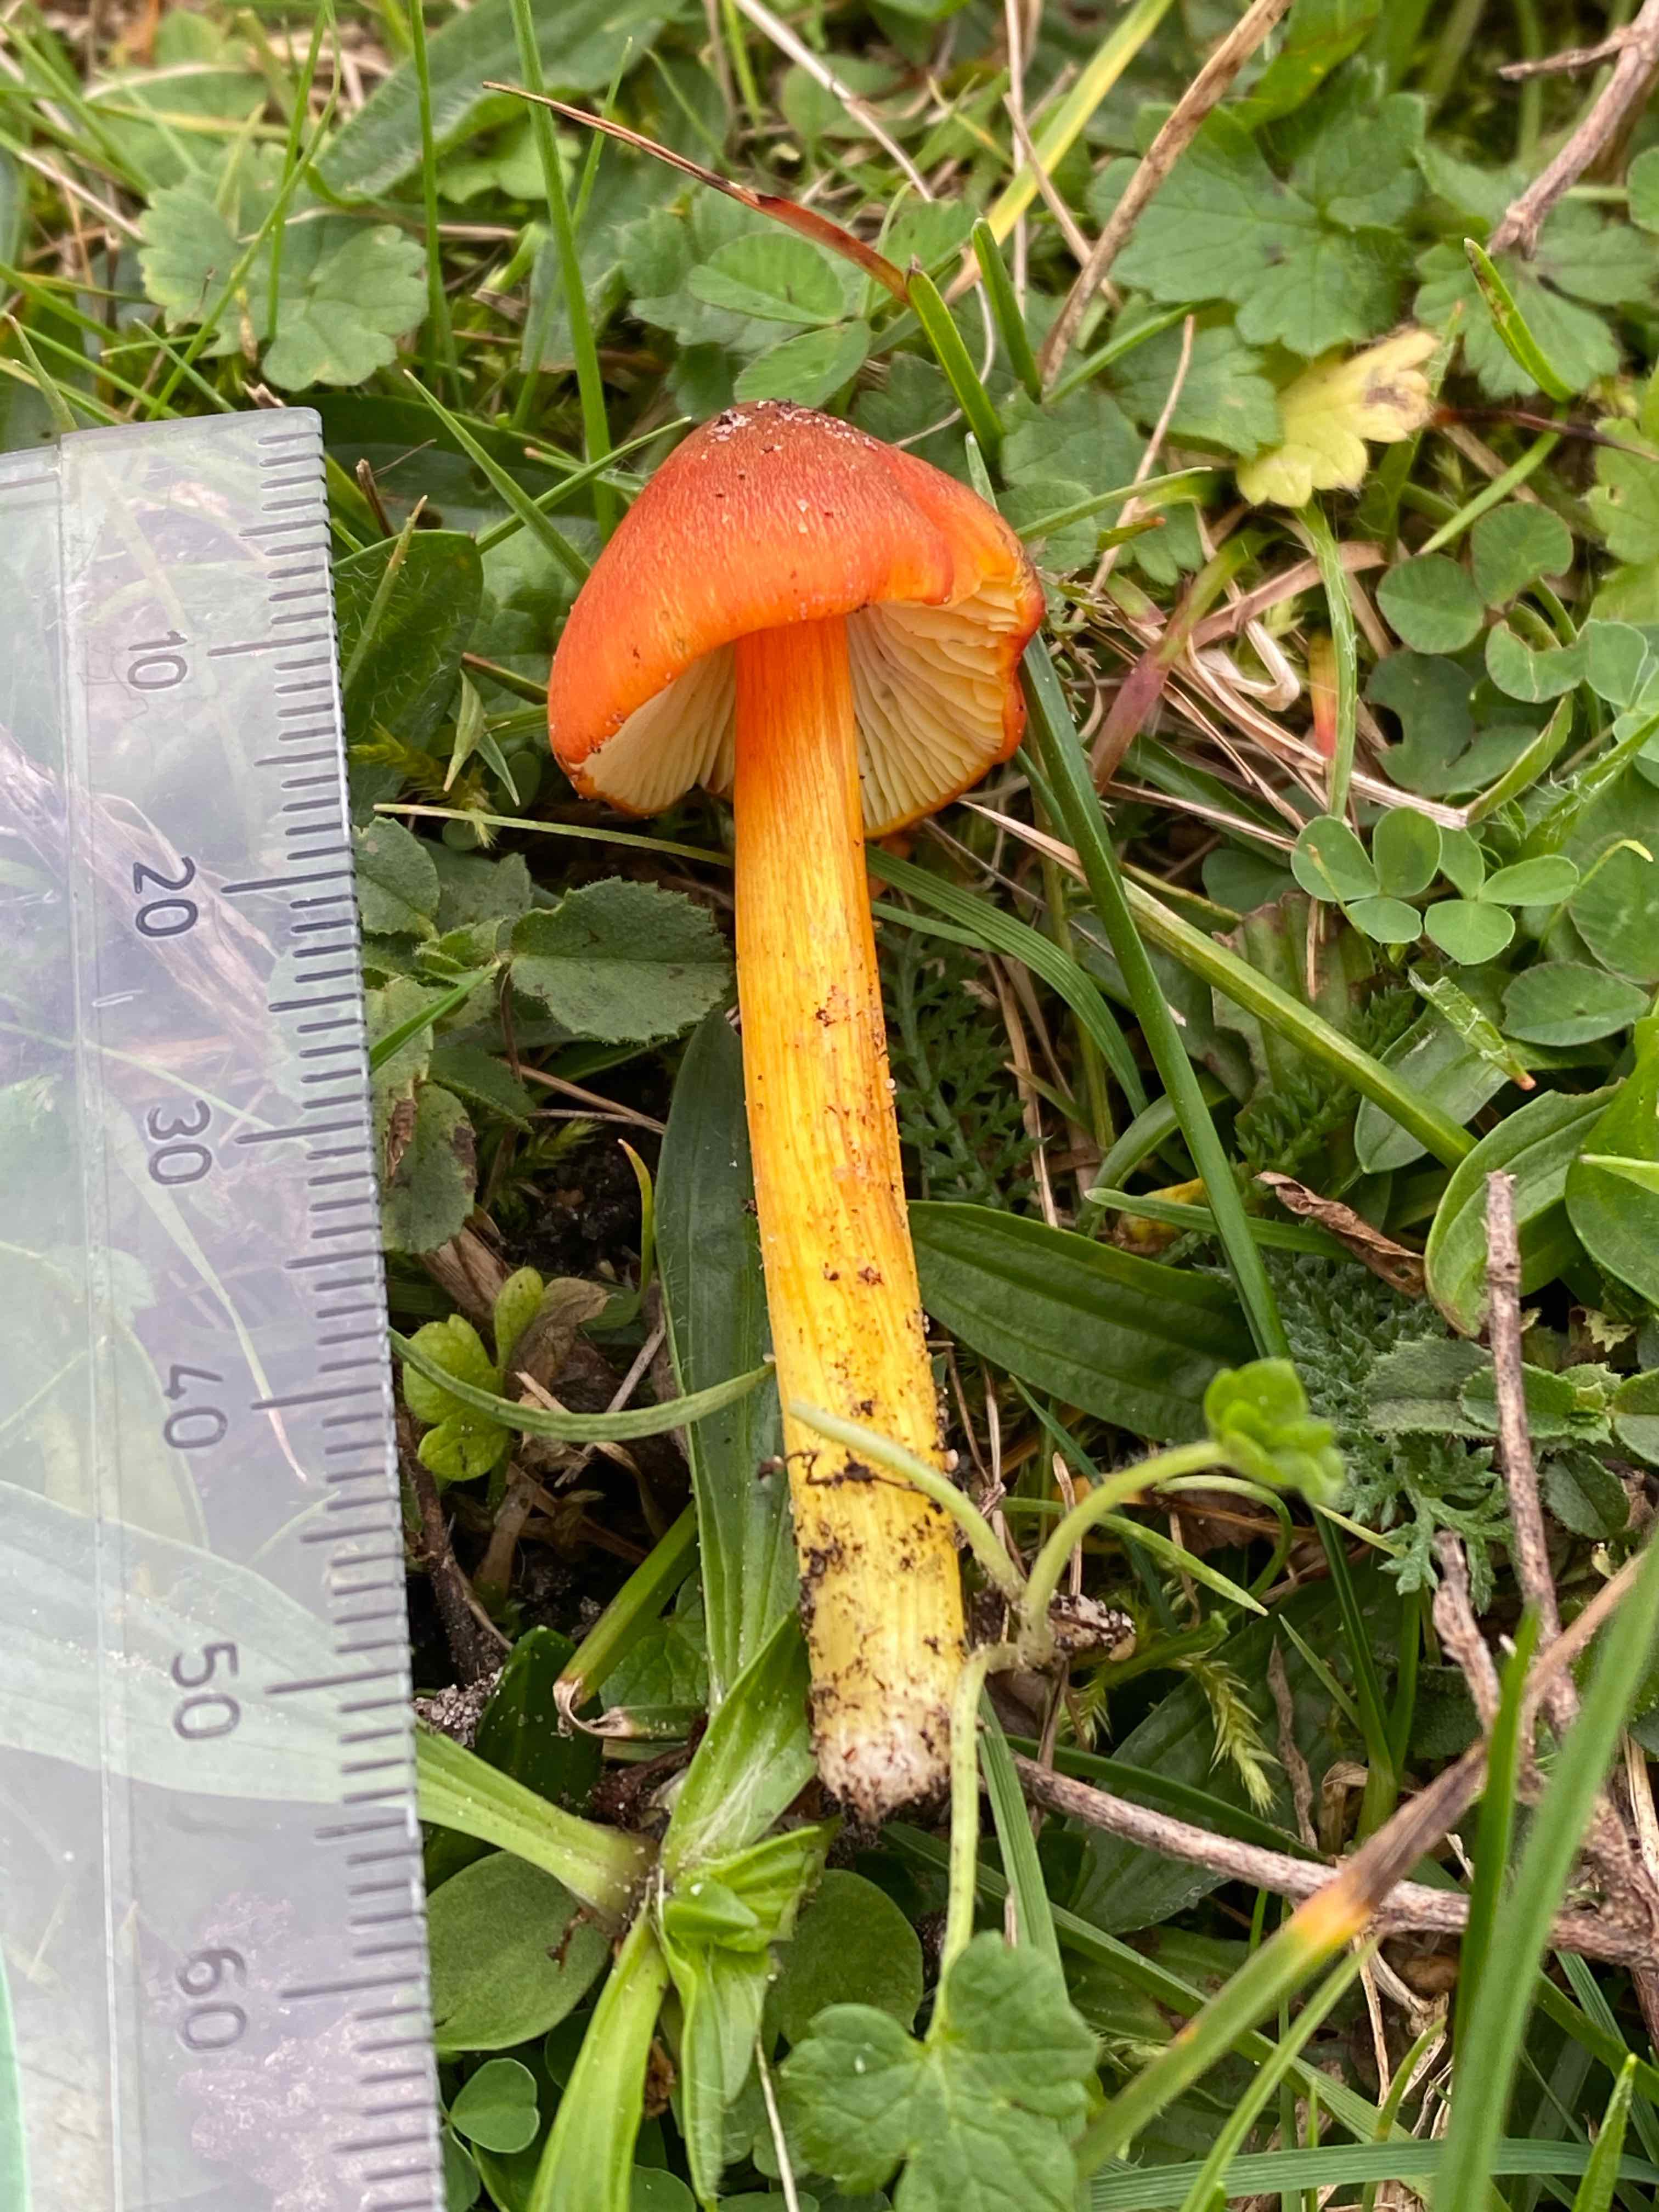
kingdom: Fungi
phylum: Basidiomycota
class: Agaricomycetes
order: Agaricales
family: Hygrophoraceae
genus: Hygrocybe
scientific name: Hygrocybe conica
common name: kegle-vokshat
